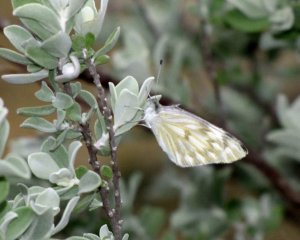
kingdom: Animalia
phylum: Arthropoda
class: Insecta
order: Lepidoptera
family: Pieridae
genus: Pontia
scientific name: Pontia protodice
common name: Checkered White
